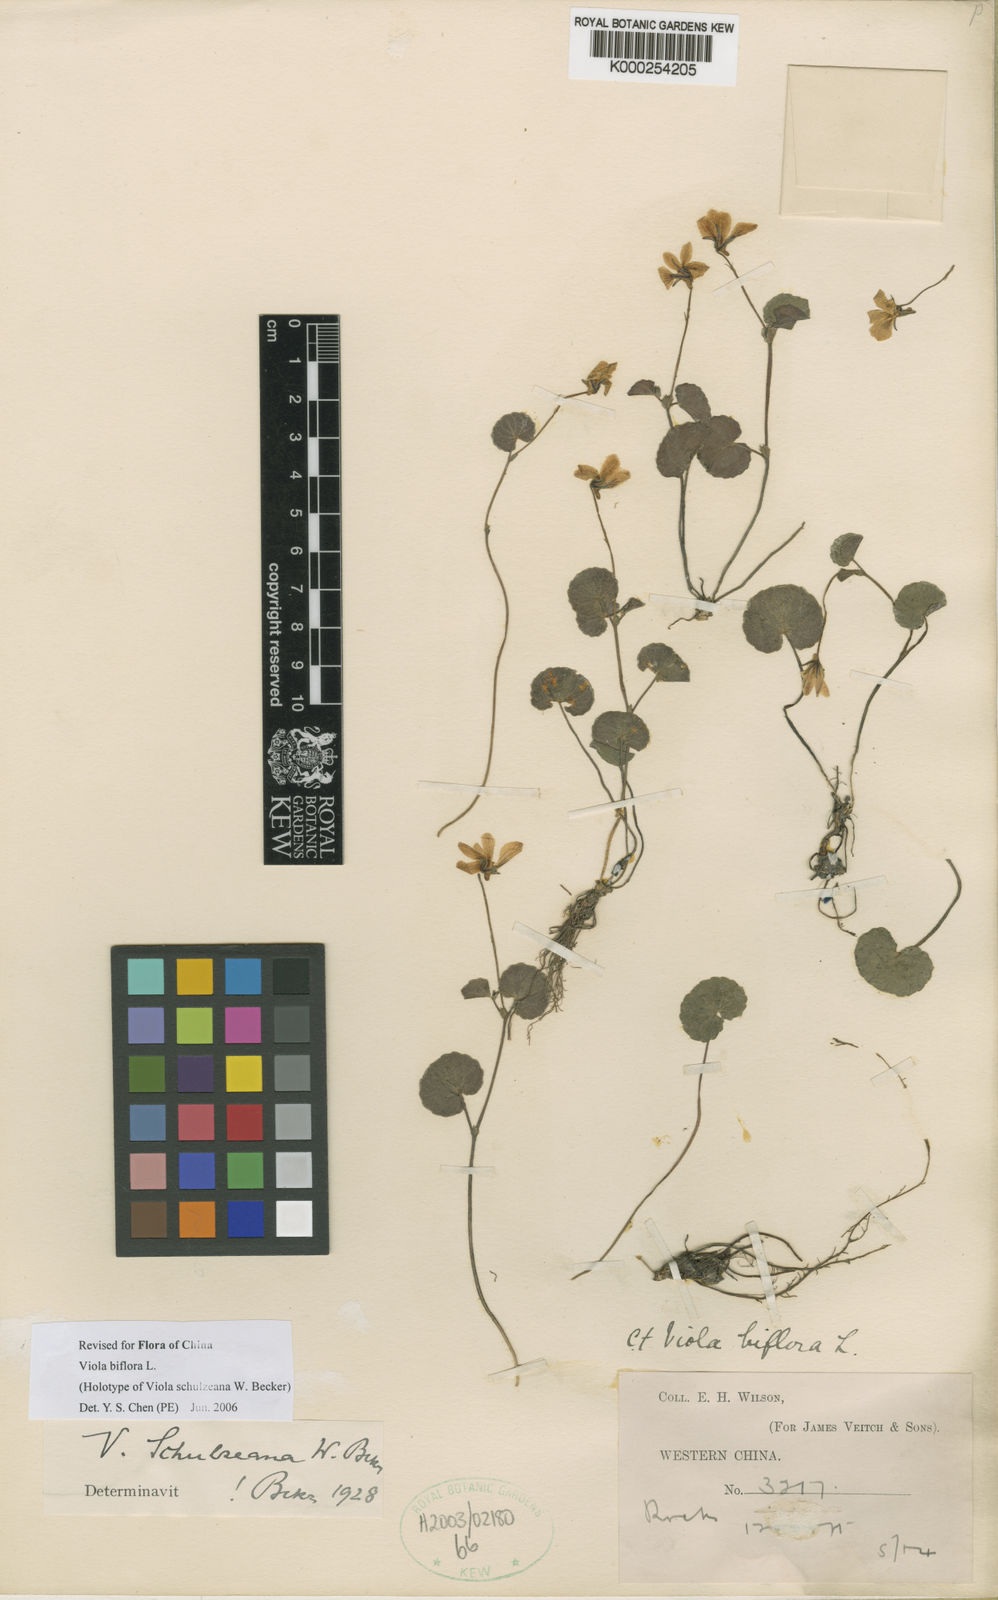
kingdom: Plantae
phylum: Tracheophyta
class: Magnoliopsida
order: Malpighiales
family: Violaceae
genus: Viola
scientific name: Viola biflora
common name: Alpine yellow violet
